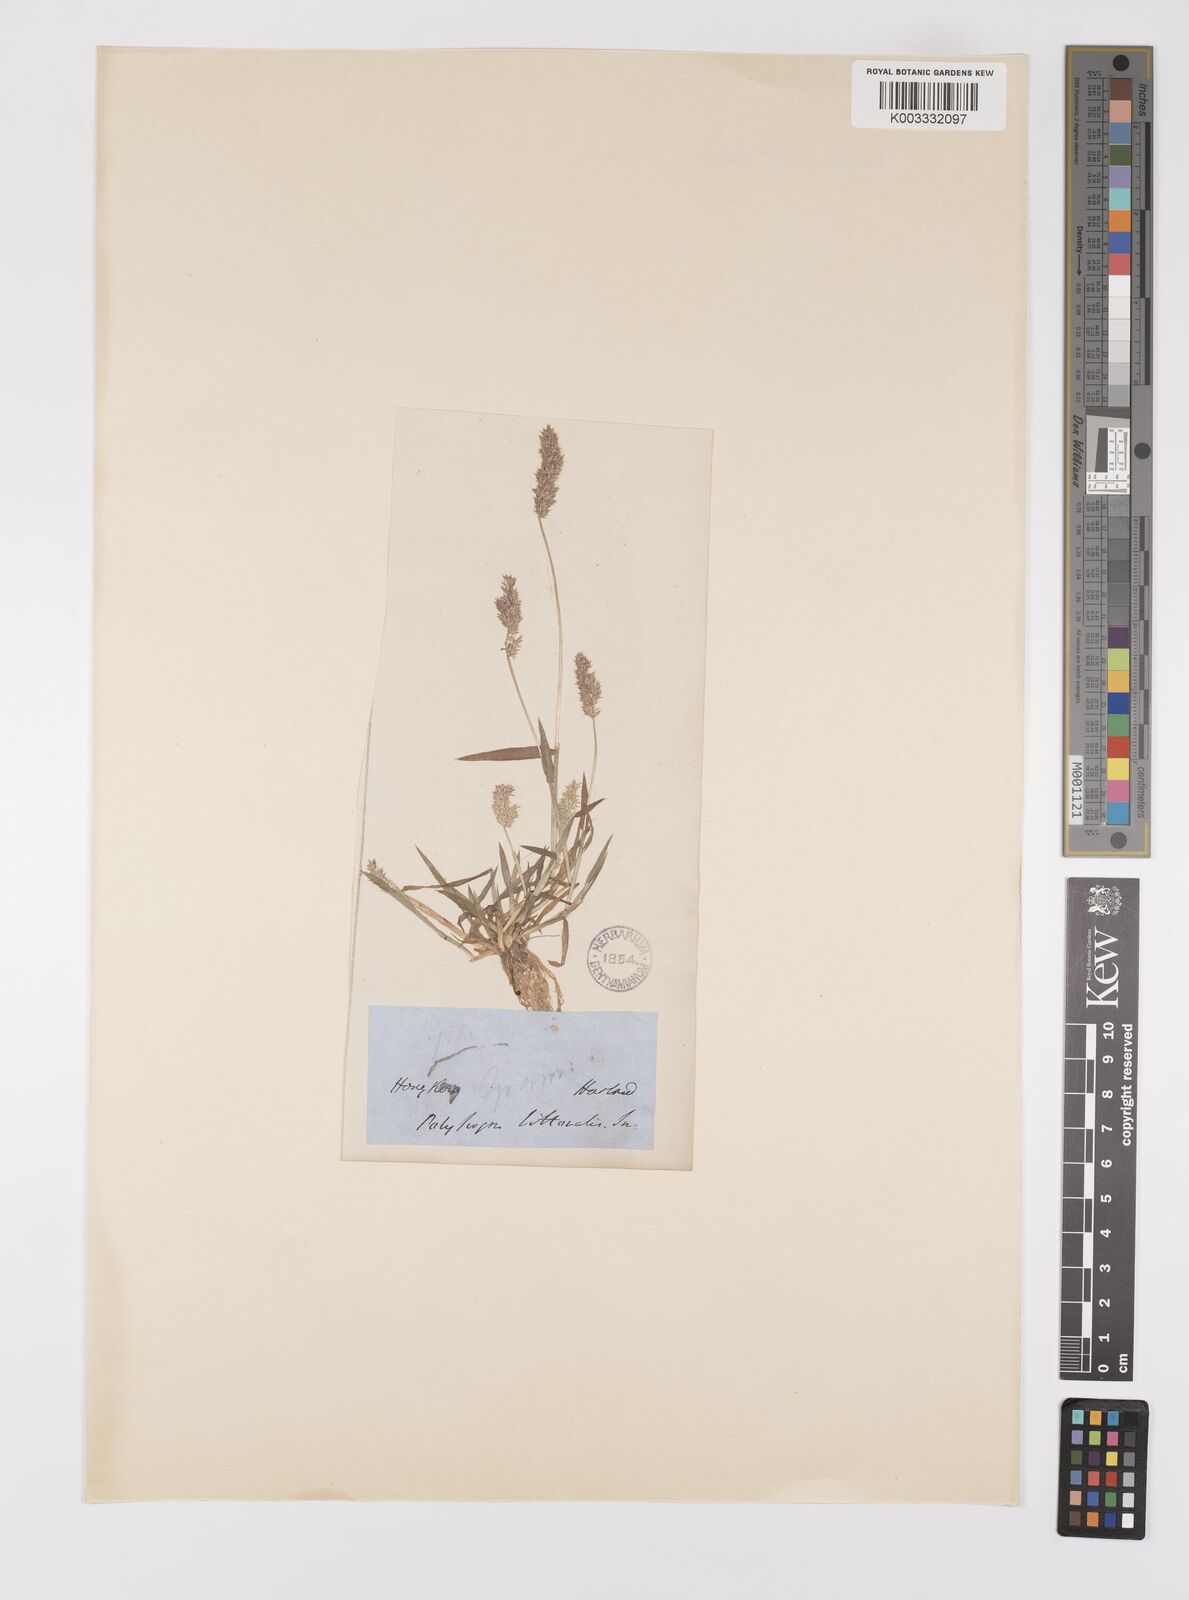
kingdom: Plantae
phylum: Tracheophyta
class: Liliopsida
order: Poales
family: Poaceae
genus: Polypogon
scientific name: Polypogon fugax
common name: Asia minor bluegrass
